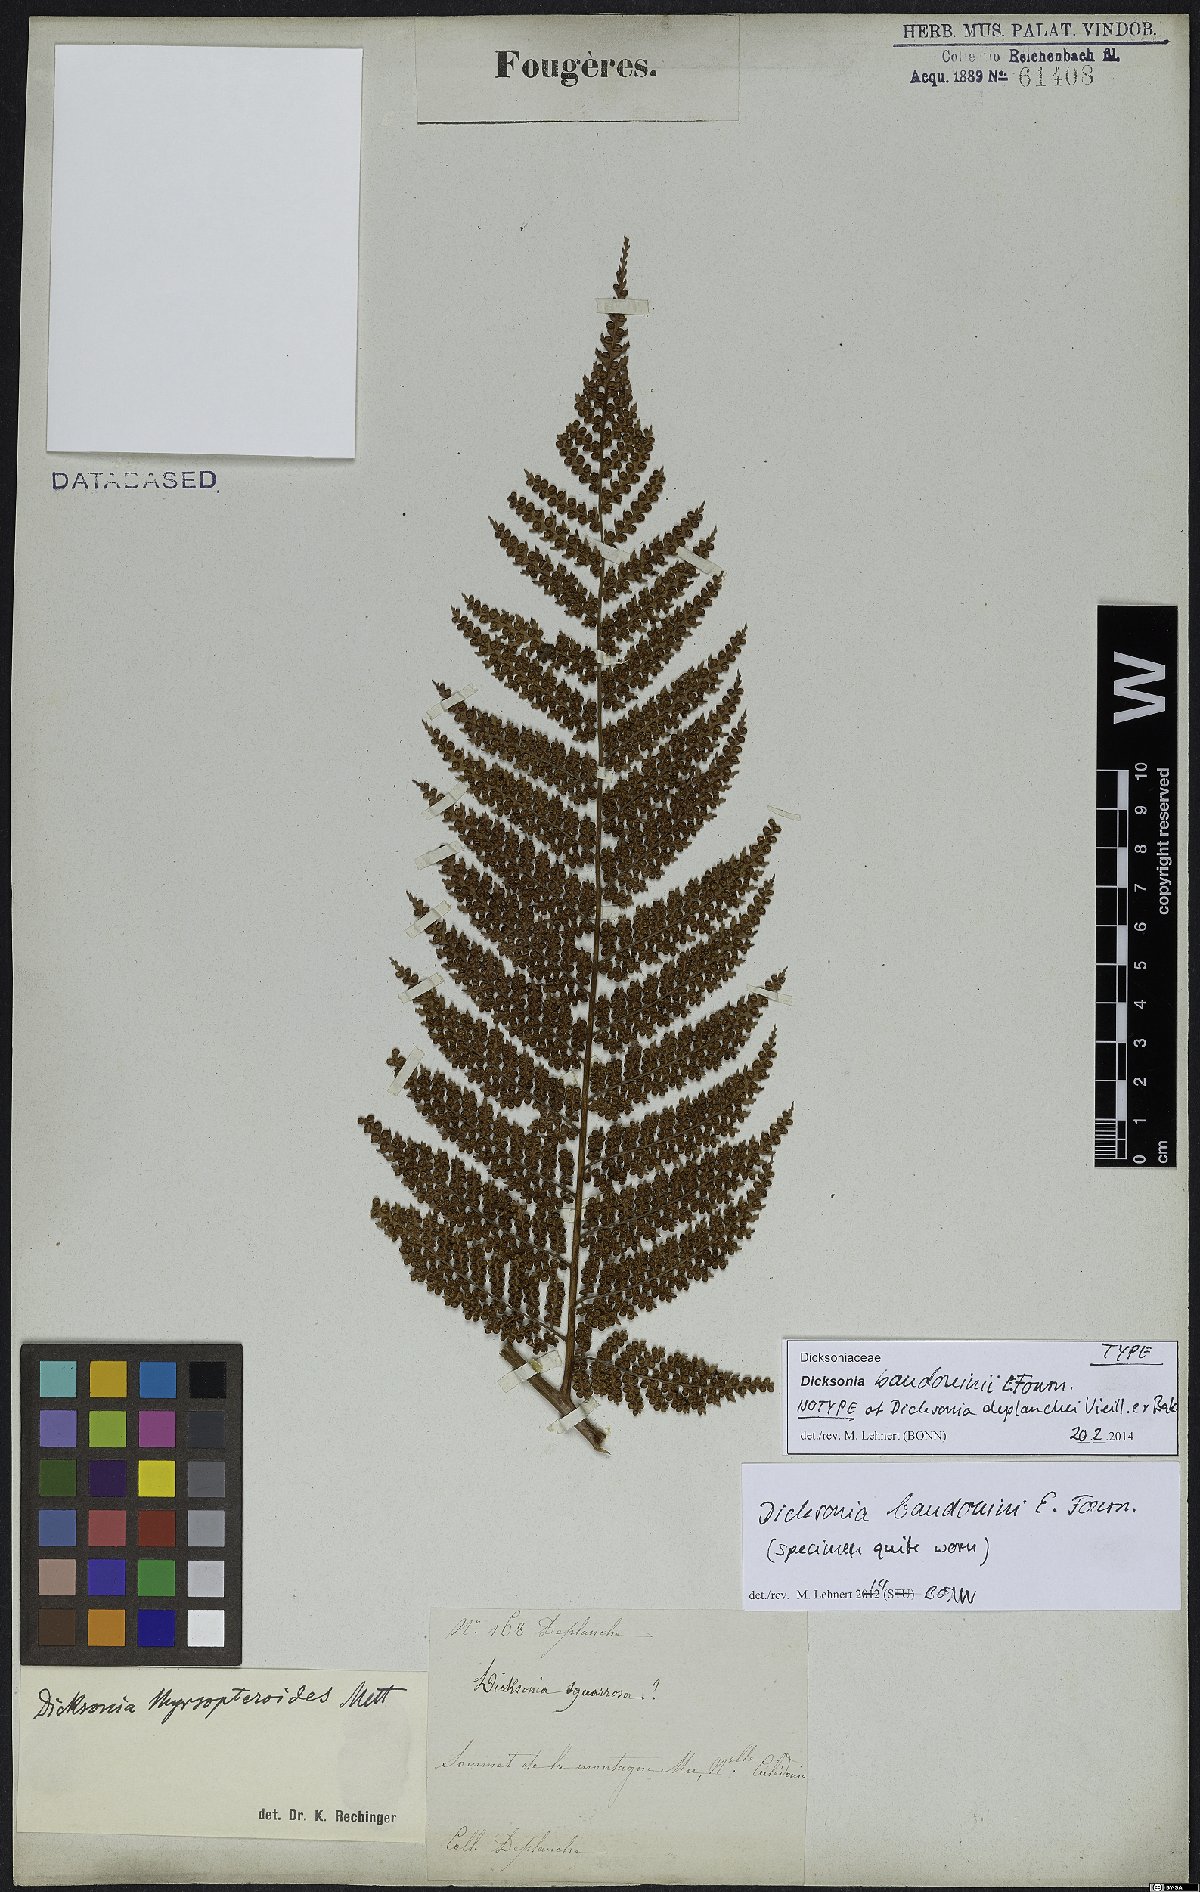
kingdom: Plantae
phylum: Tracheophyta
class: Polypodiopsida
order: Cyatheales
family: Dicksoniaceae
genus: Dicksonia
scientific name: Dicksonia baudouinii
